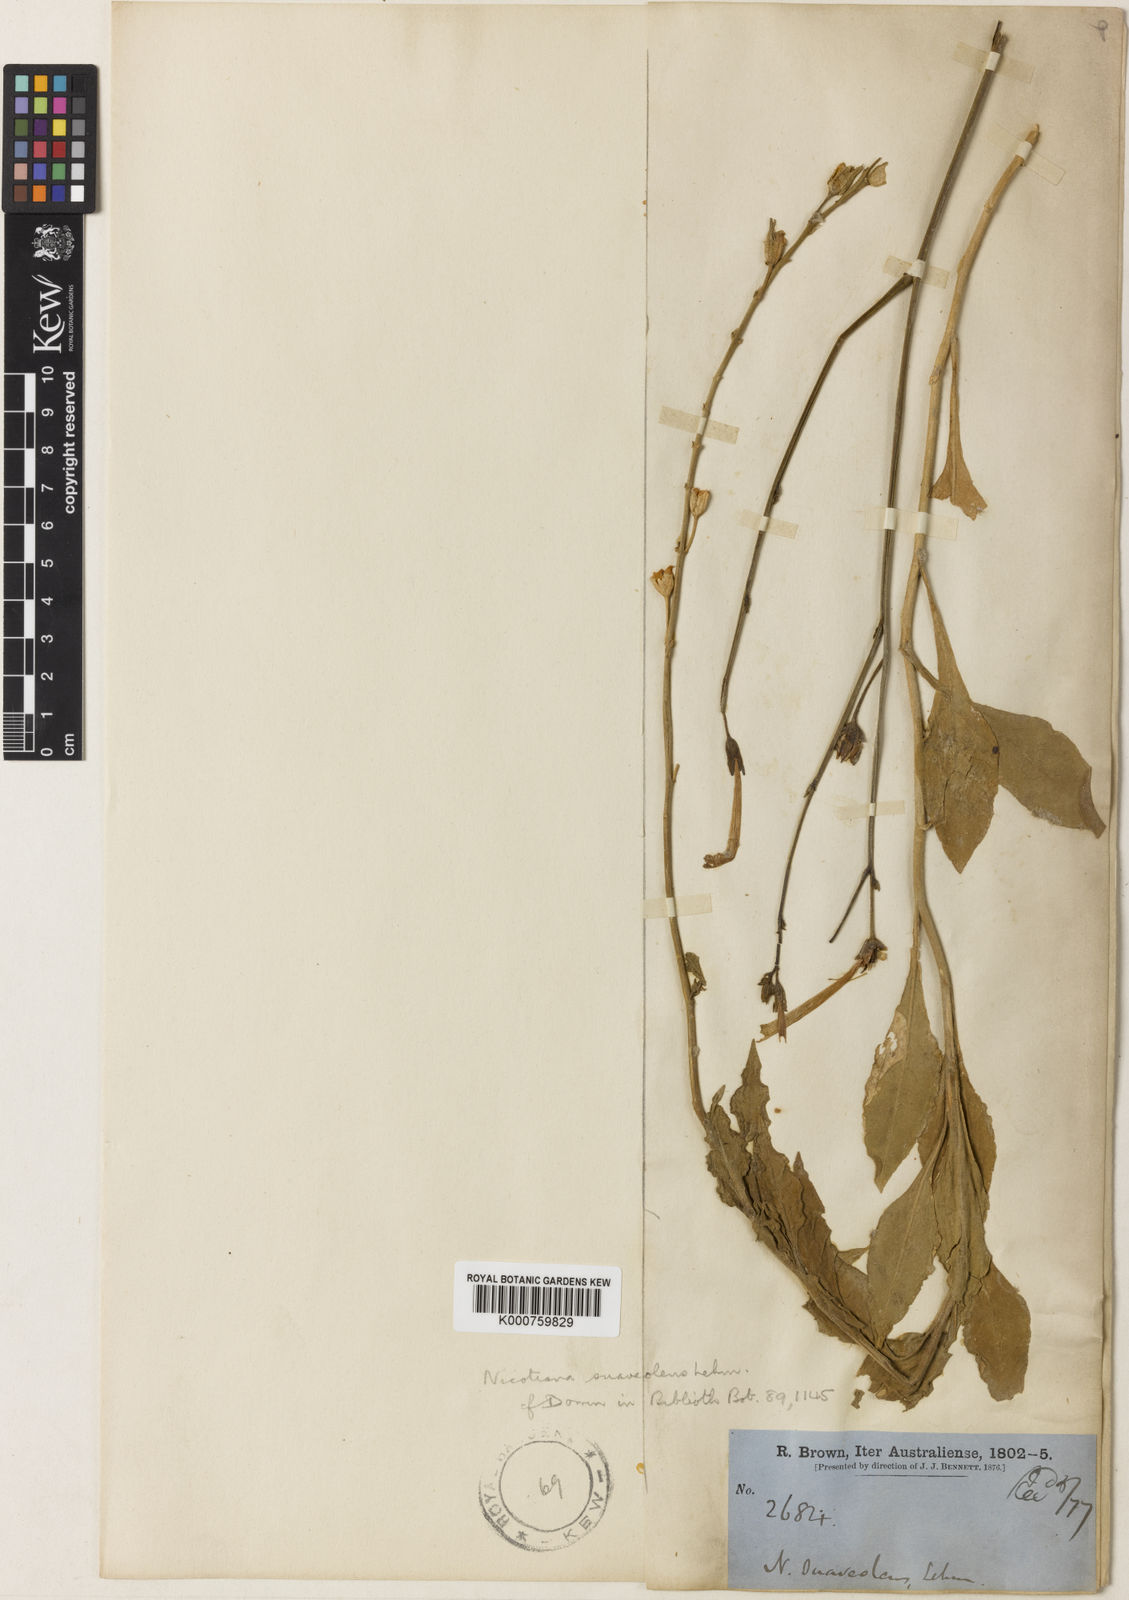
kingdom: Plantae
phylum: Tracheophyta
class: Magnoliopsida
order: Solanales
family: Solanaceae
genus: Nicotiana
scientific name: Nicotiana suaveolens
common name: Australian tobacco
